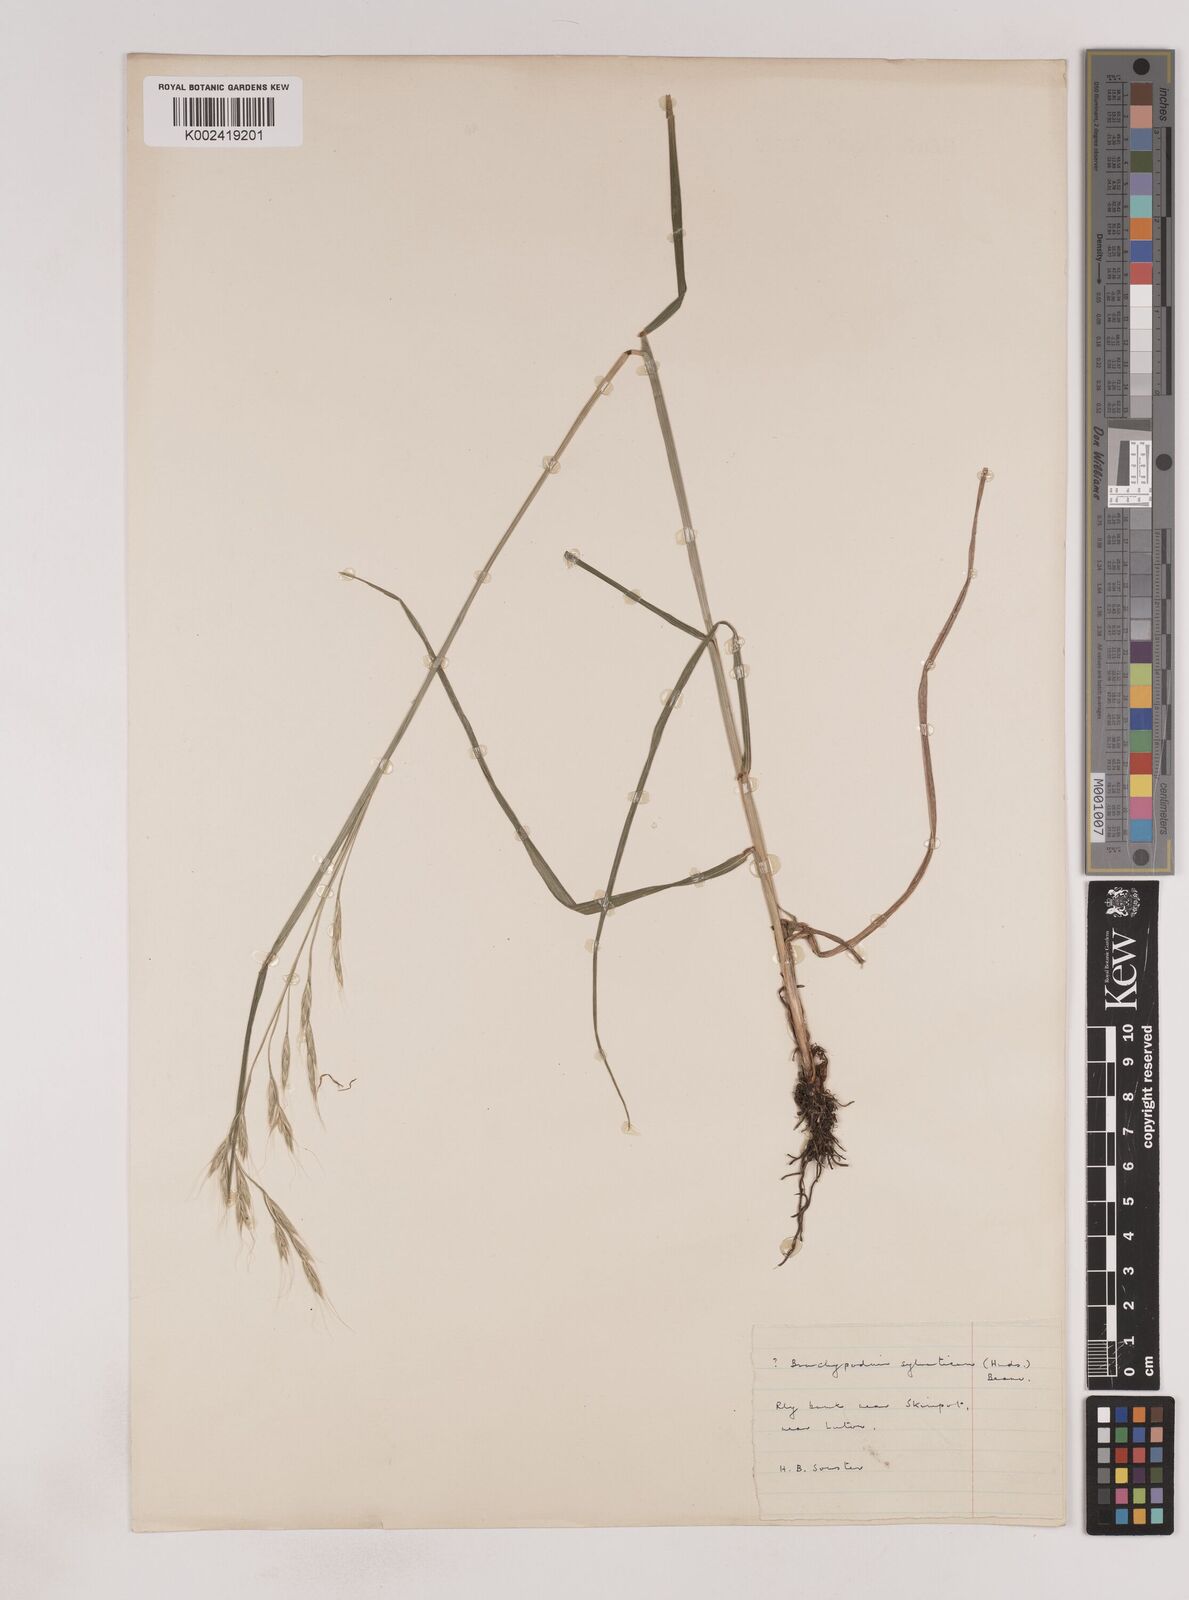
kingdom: Plantae
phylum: Tracheophyta
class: Liliopsida
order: Poales
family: Poaceae
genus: Lolium
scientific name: Lolium giganteum
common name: Giant fescue
